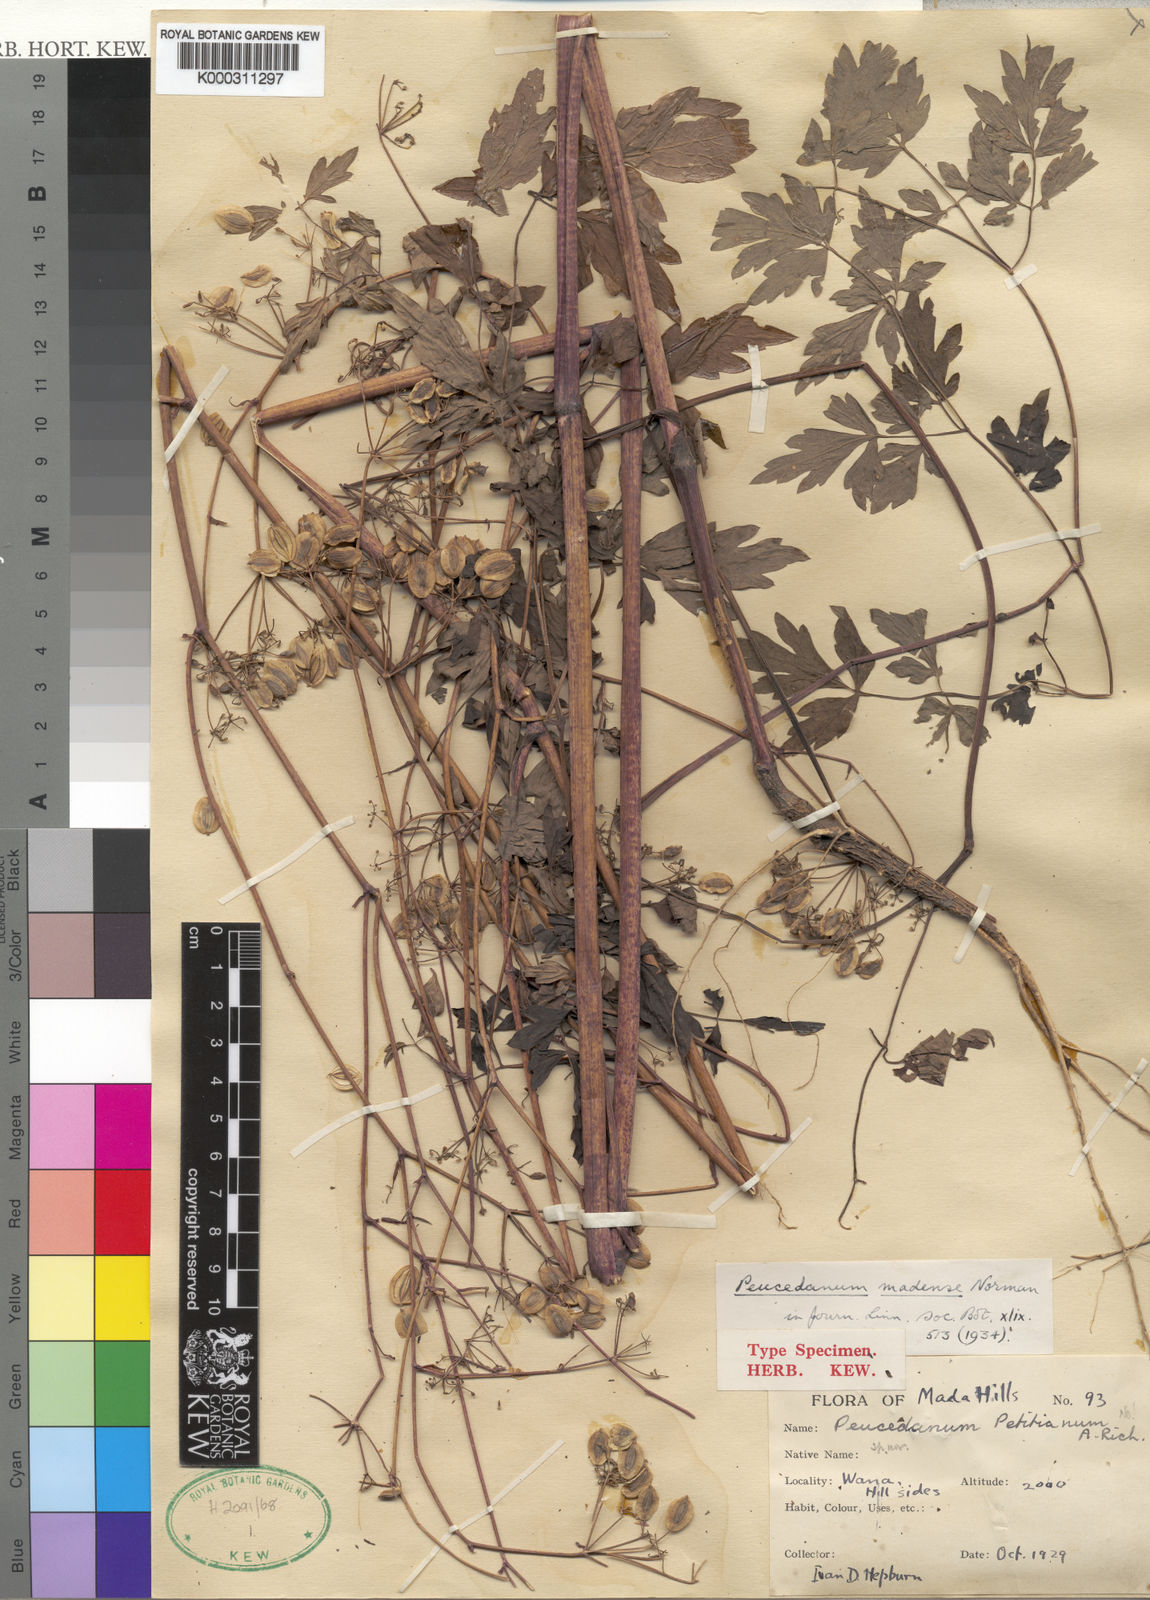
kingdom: Plantae
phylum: Tracheophyta
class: Magnoliopsida
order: Apiales
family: Apiaceae
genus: Afroligusticum
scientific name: Afroligusticum petitianum
